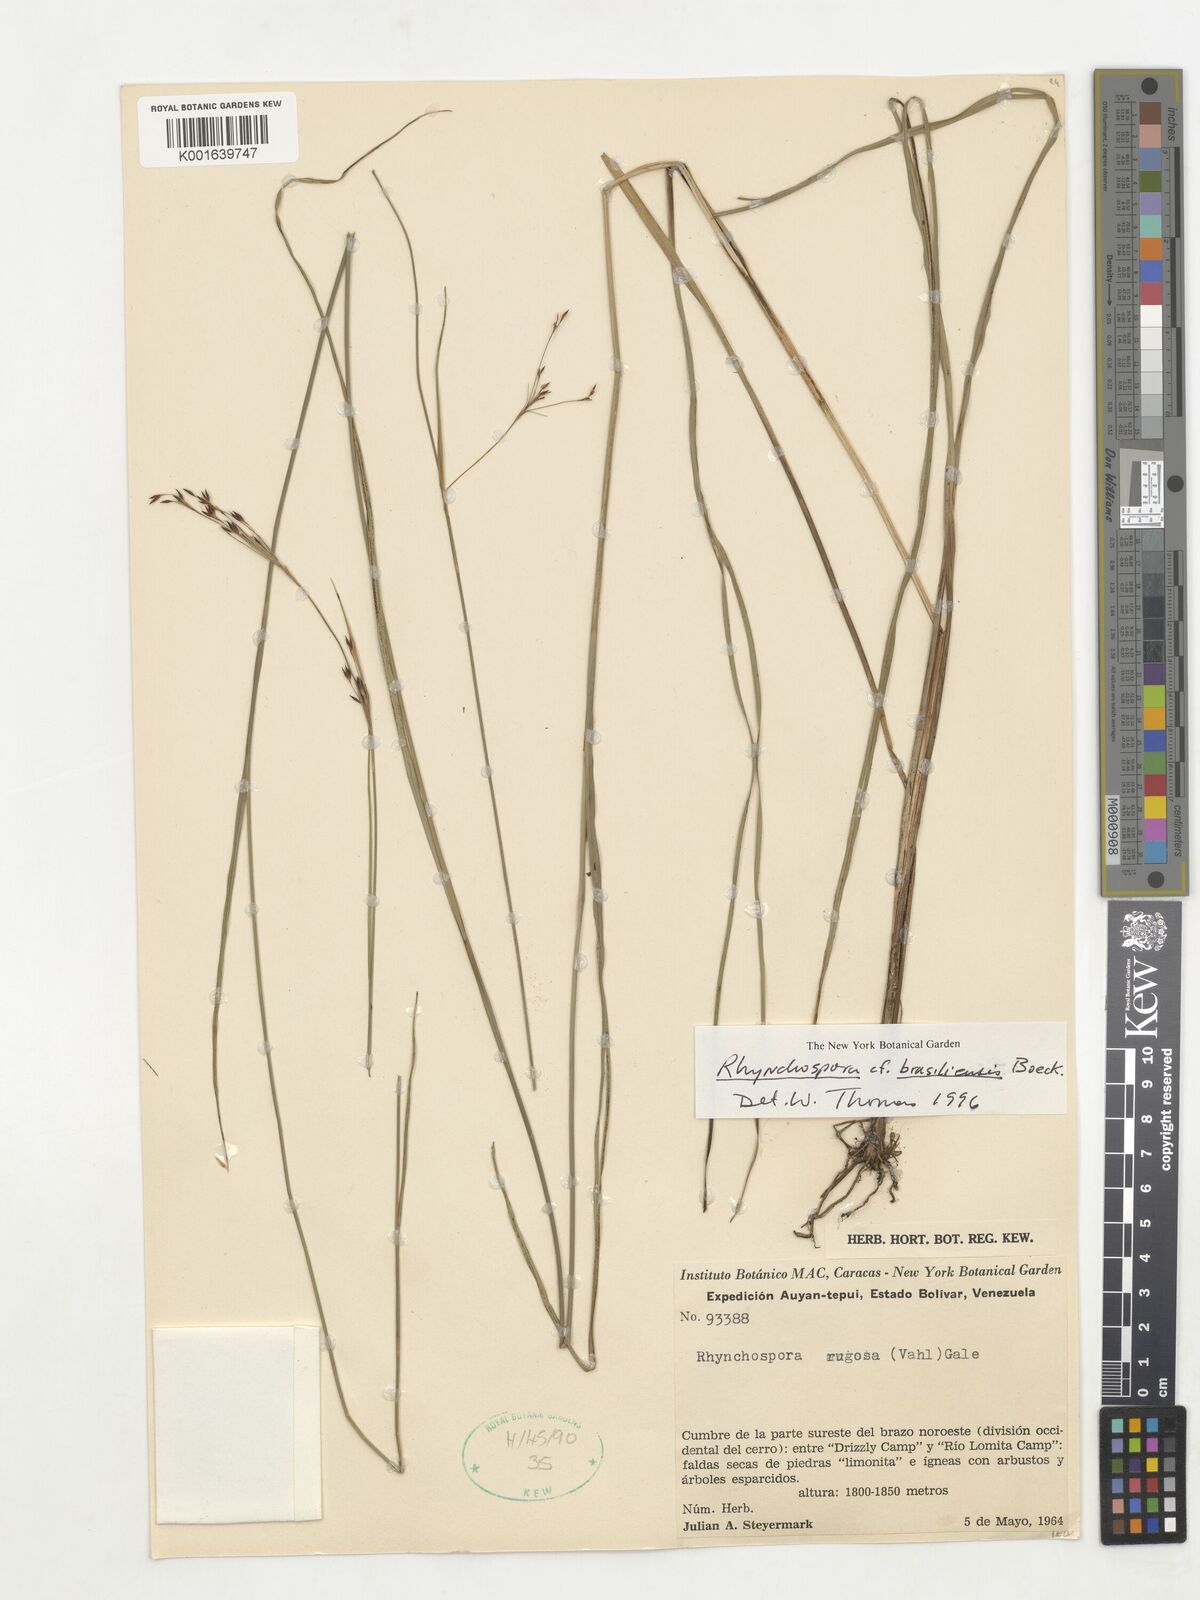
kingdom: Plantae
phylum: Tracheophyta
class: Liliopsida
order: Poales
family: Cyperaceae
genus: Rhynchospora
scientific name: Rhynchospora brasiliensis
